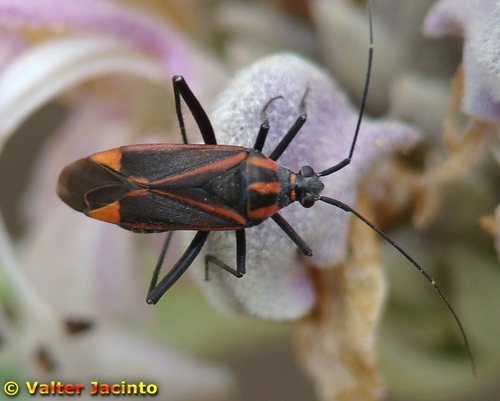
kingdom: Animalia
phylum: Arthropoda
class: Insecta
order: Hemiptera
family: Miridae
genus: Hadrodemus
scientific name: Hadrodemus noualhieri
